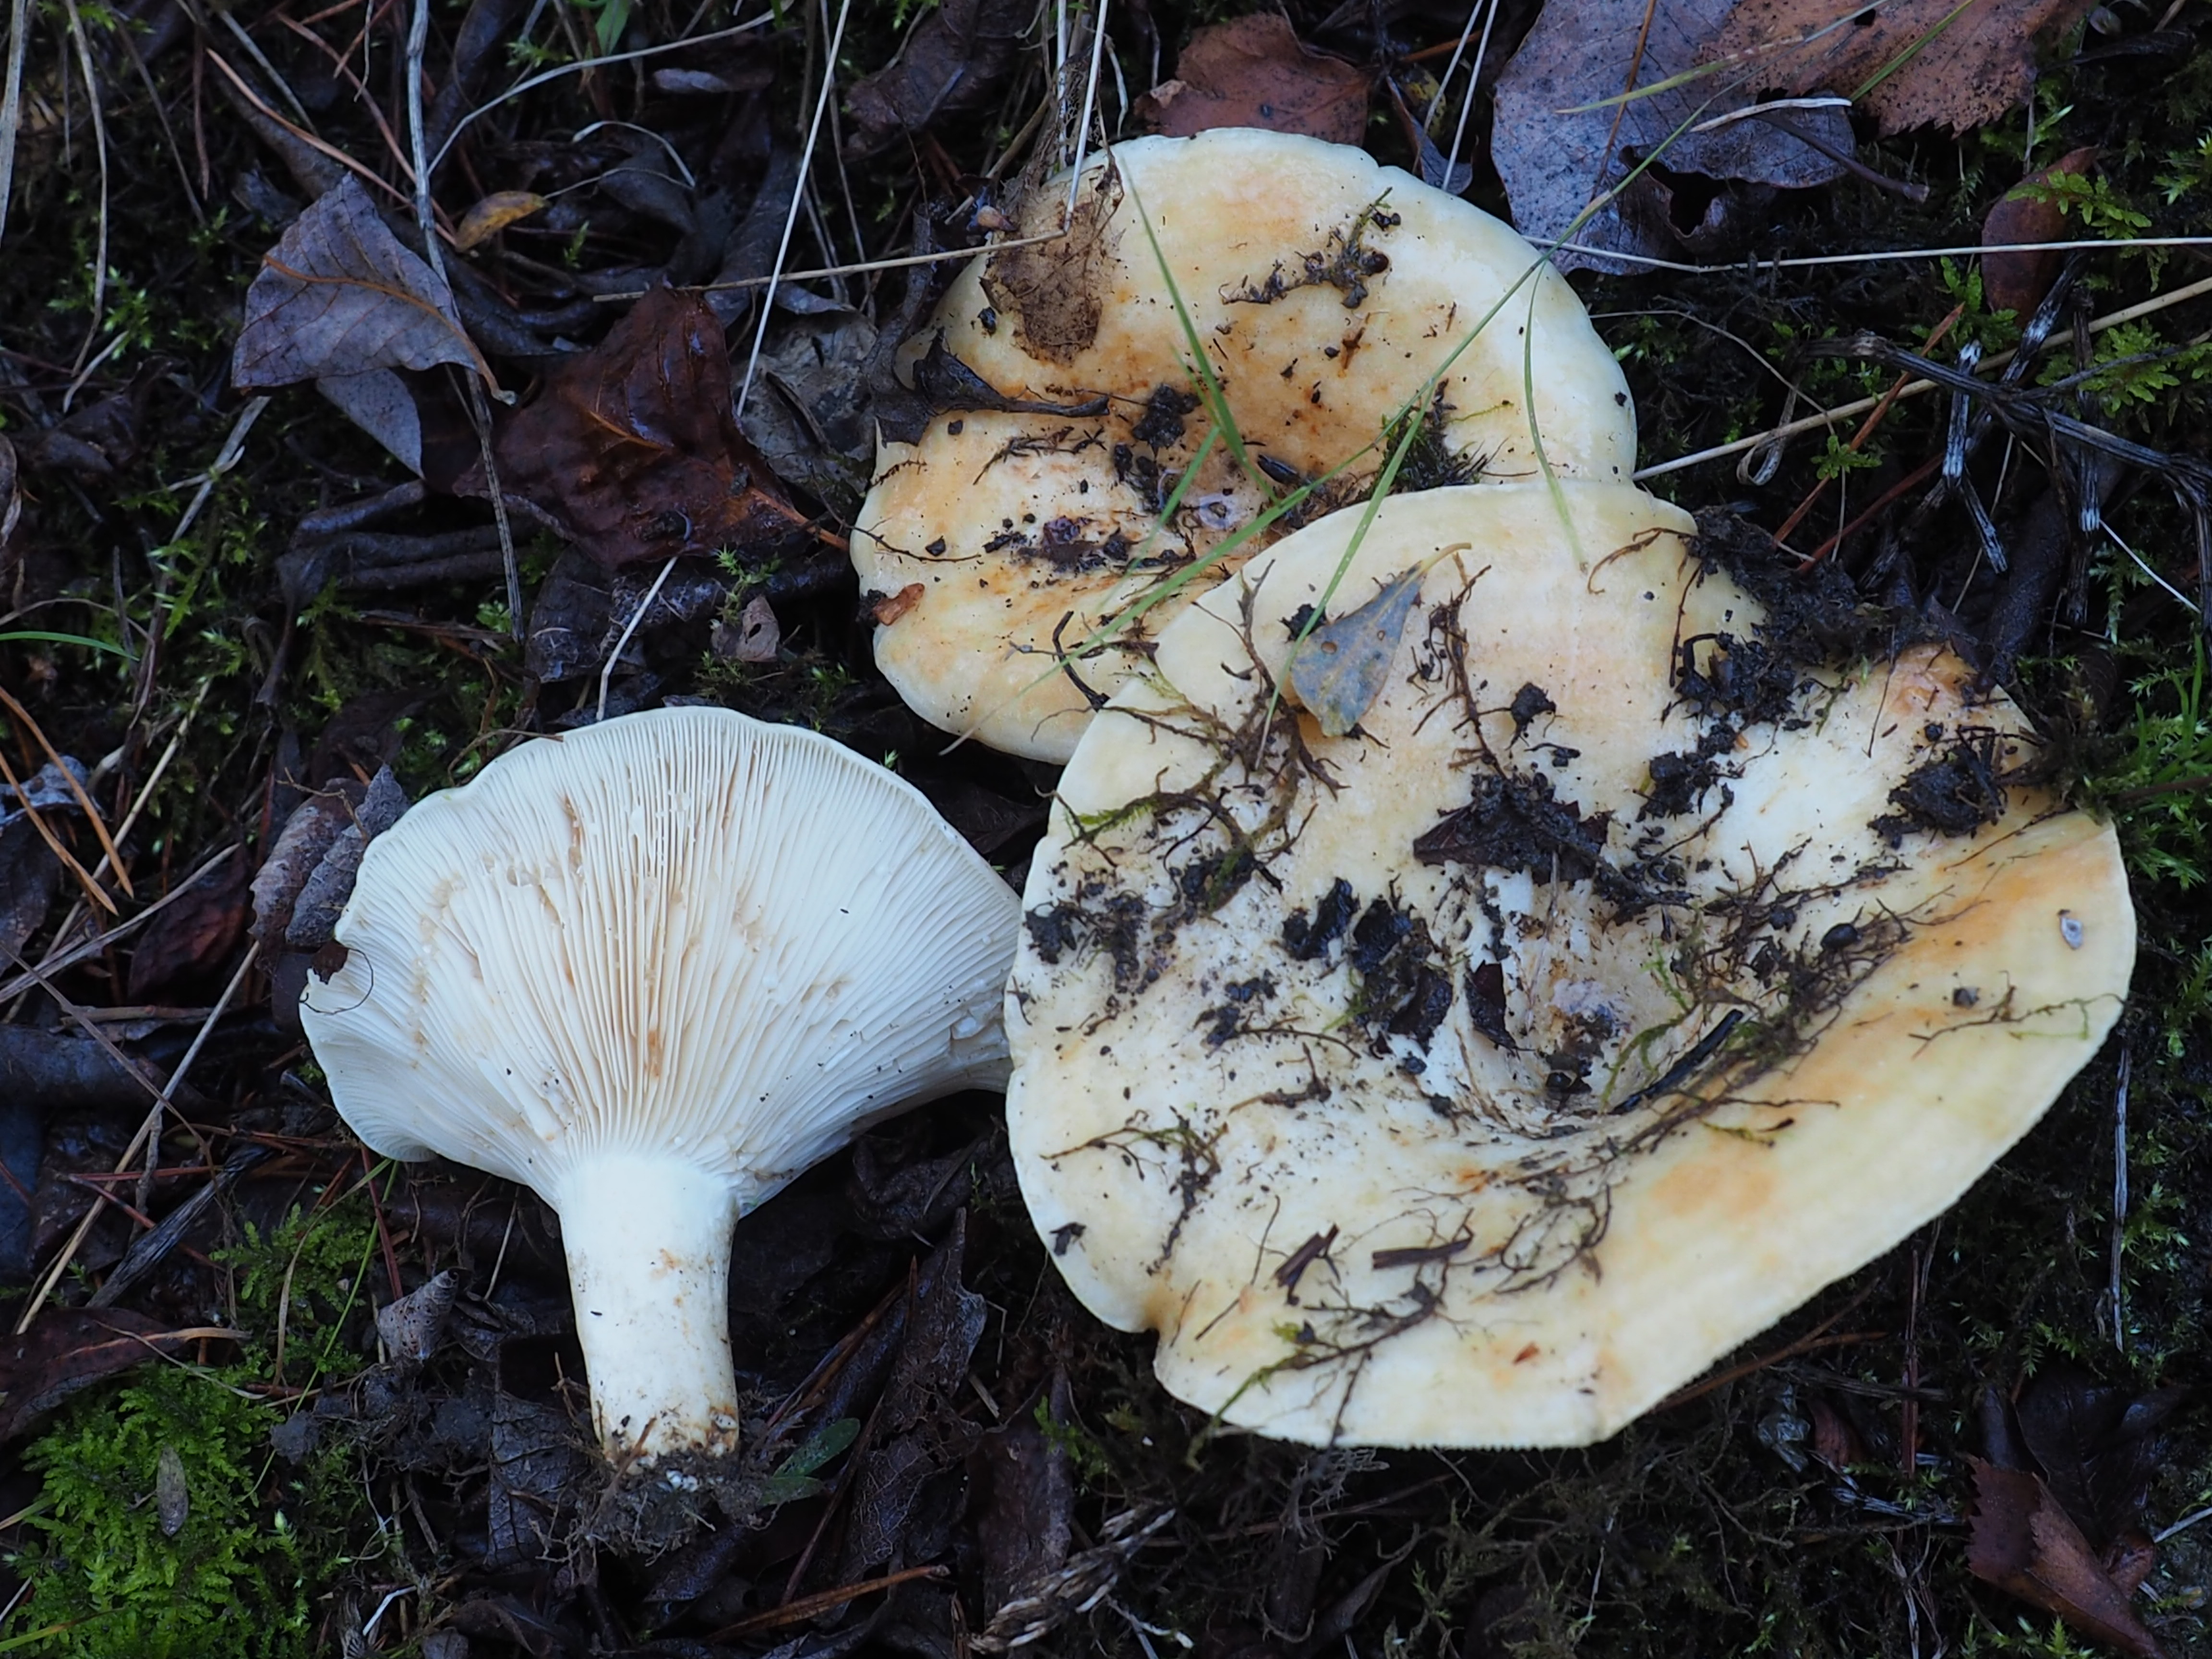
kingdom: Fungi
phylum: Basidiomycota
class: Agaricomycetes
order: Russulales
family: Russulaceae
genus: Lactarius
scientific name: Lactarius aquizonatus
